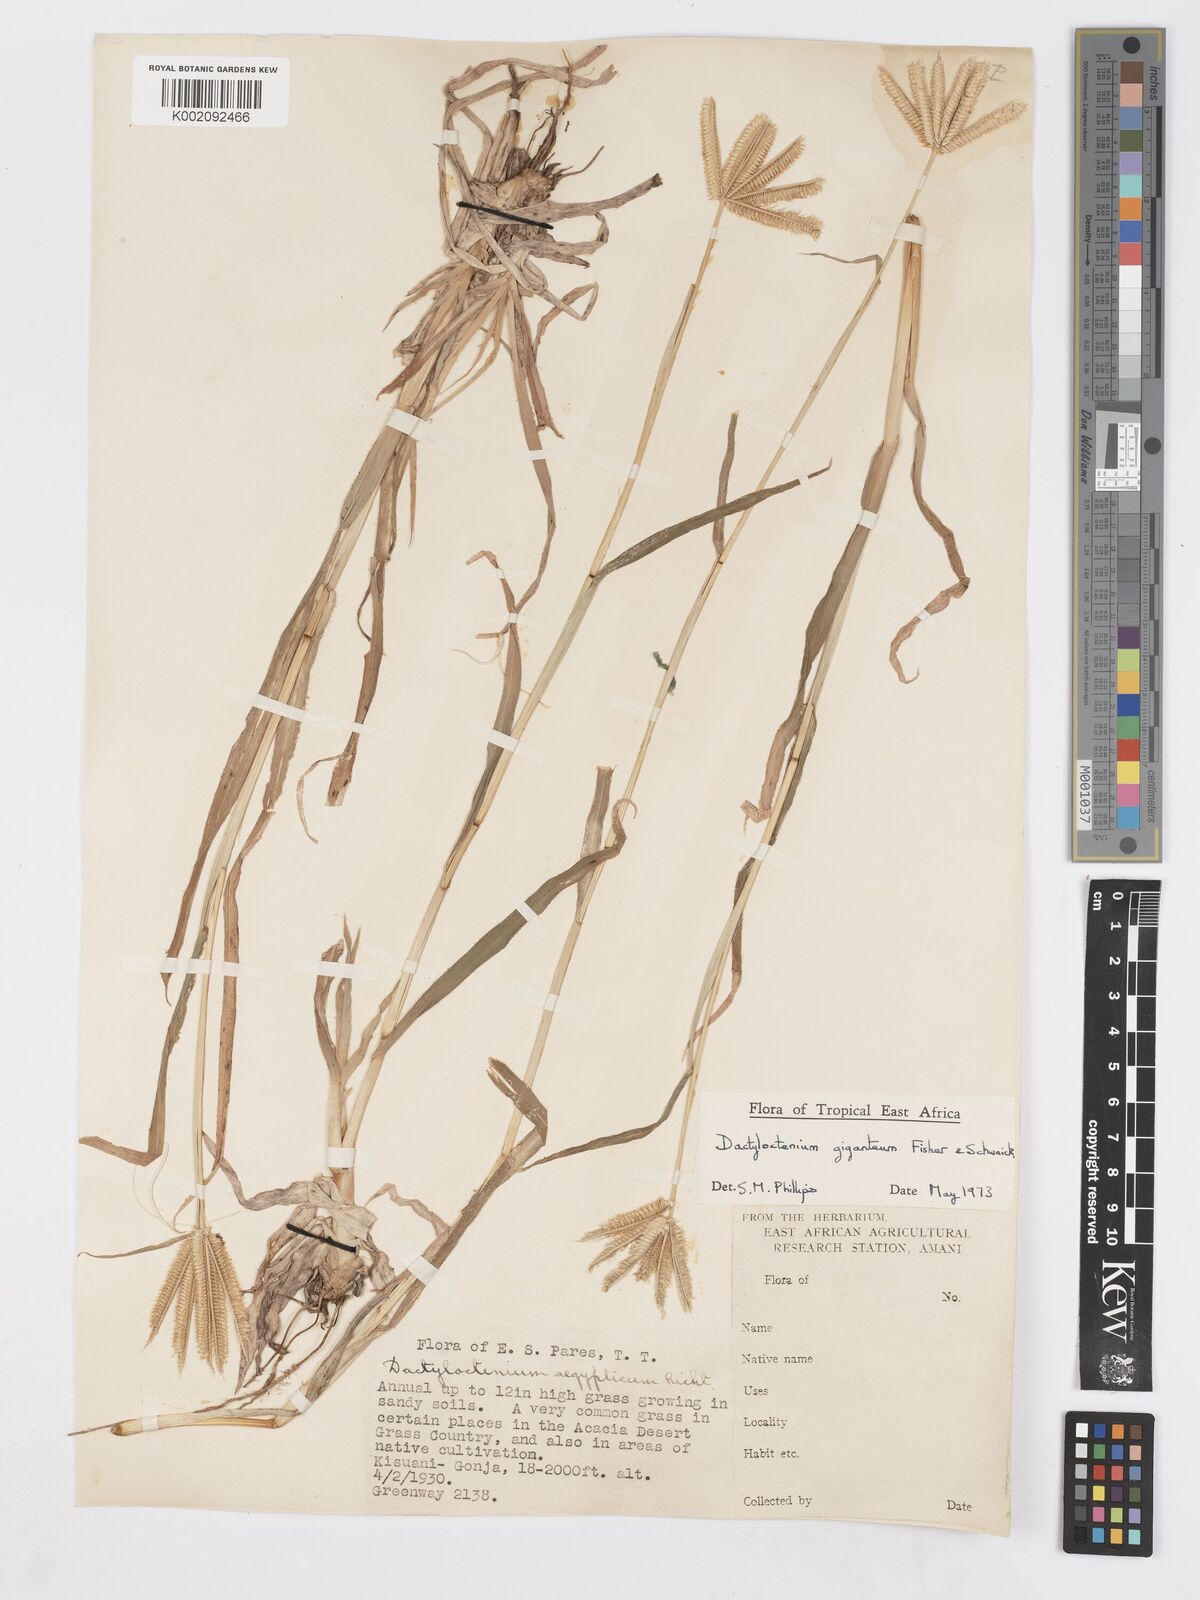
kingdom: Plantae
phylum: Tracheophyta
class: Liliopsida
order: Poales
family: Poaceae
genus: Dactyloctenium
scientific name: Dactyloctenium giganteum
